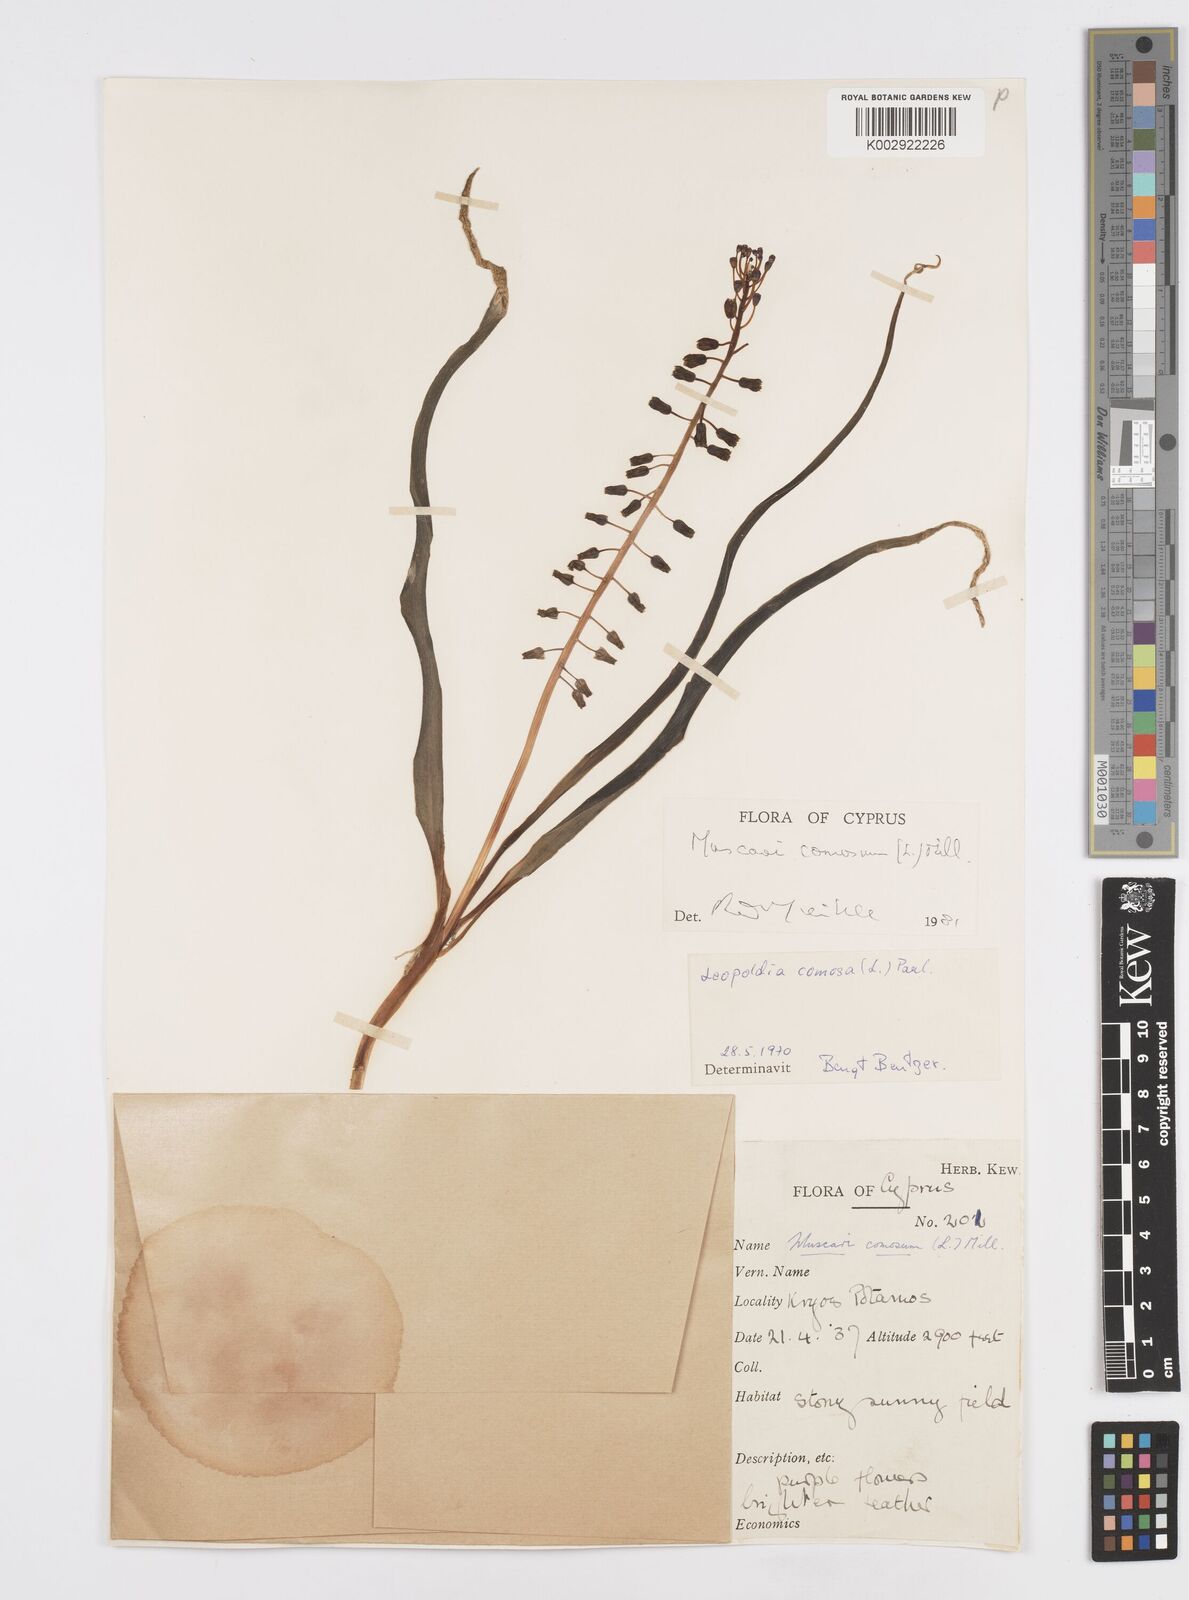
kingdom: Plantae
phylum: Tracheophyta
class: Liliopsida
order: Asparagales
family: Asparagaceae
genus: Muscari
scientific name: Muscari comosum
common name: Tassel hyacinth
